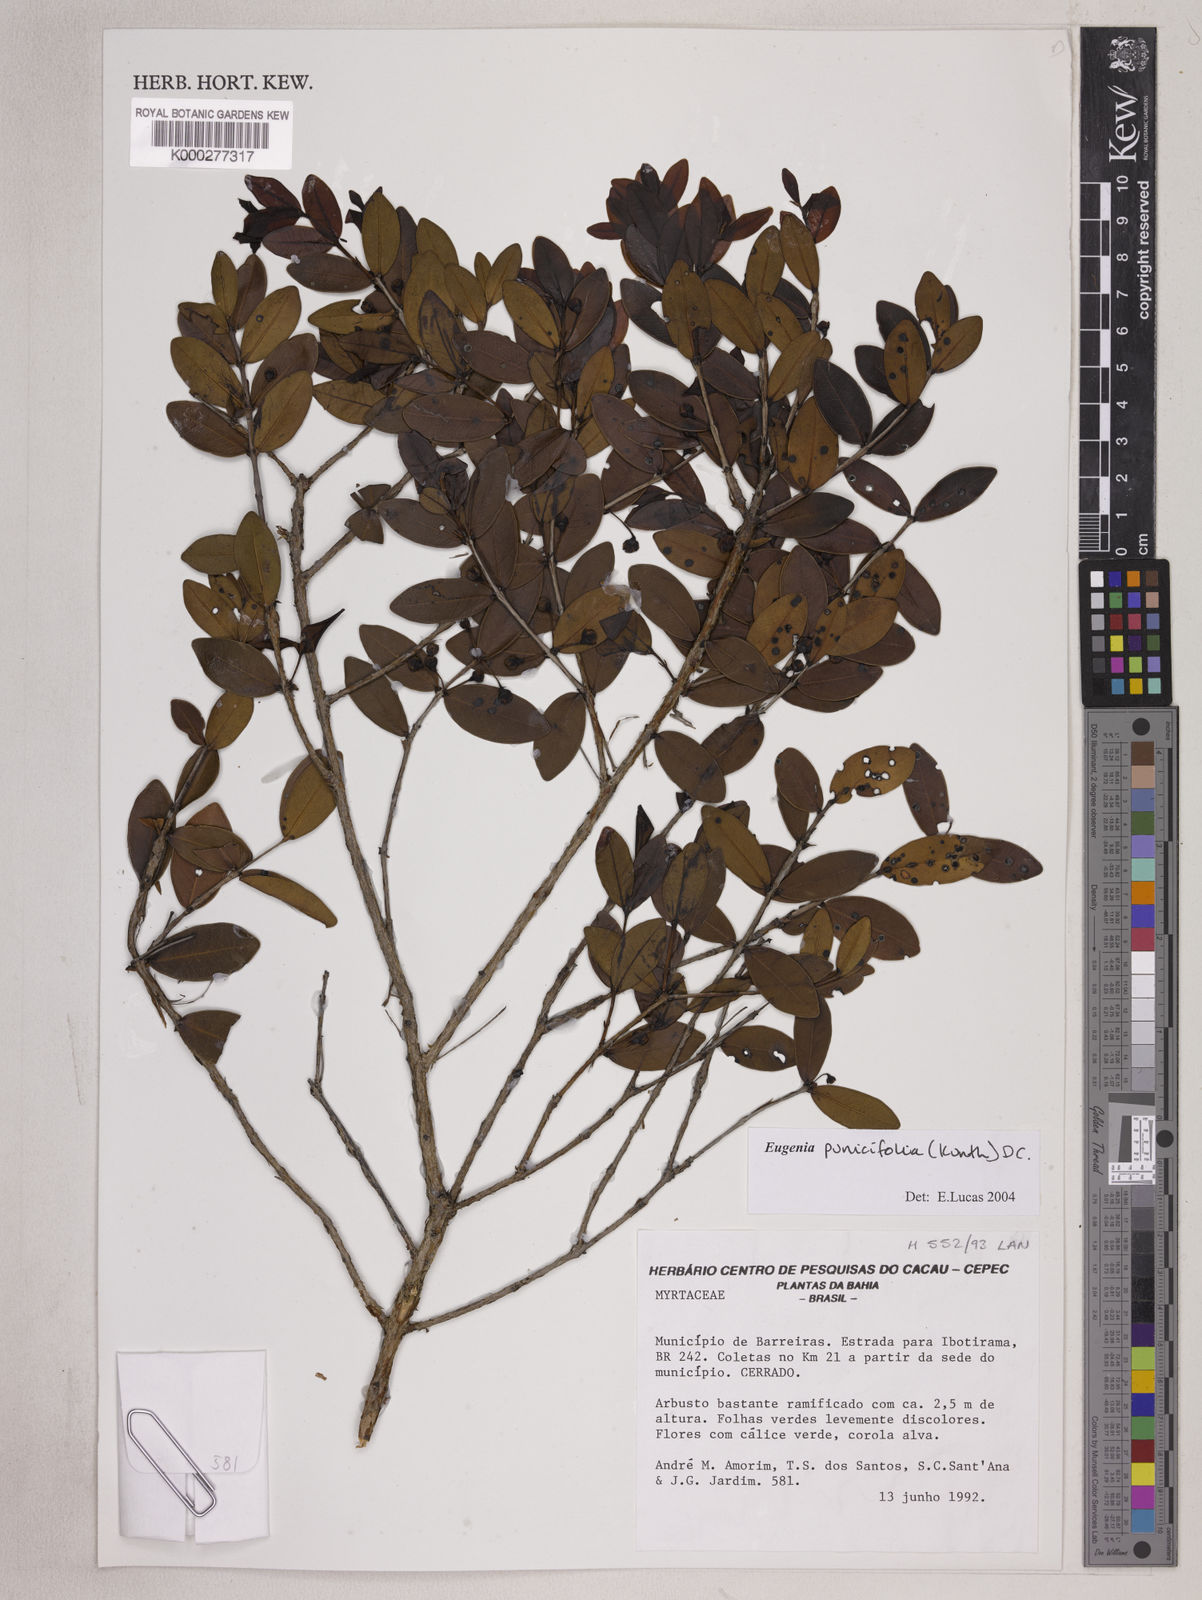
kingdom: Plantae
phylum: Tracheophyta
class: Magnoliopsida
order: Myrtales
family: Myrtaceae
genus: Eugenia
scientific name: Eugenia punicifolia
